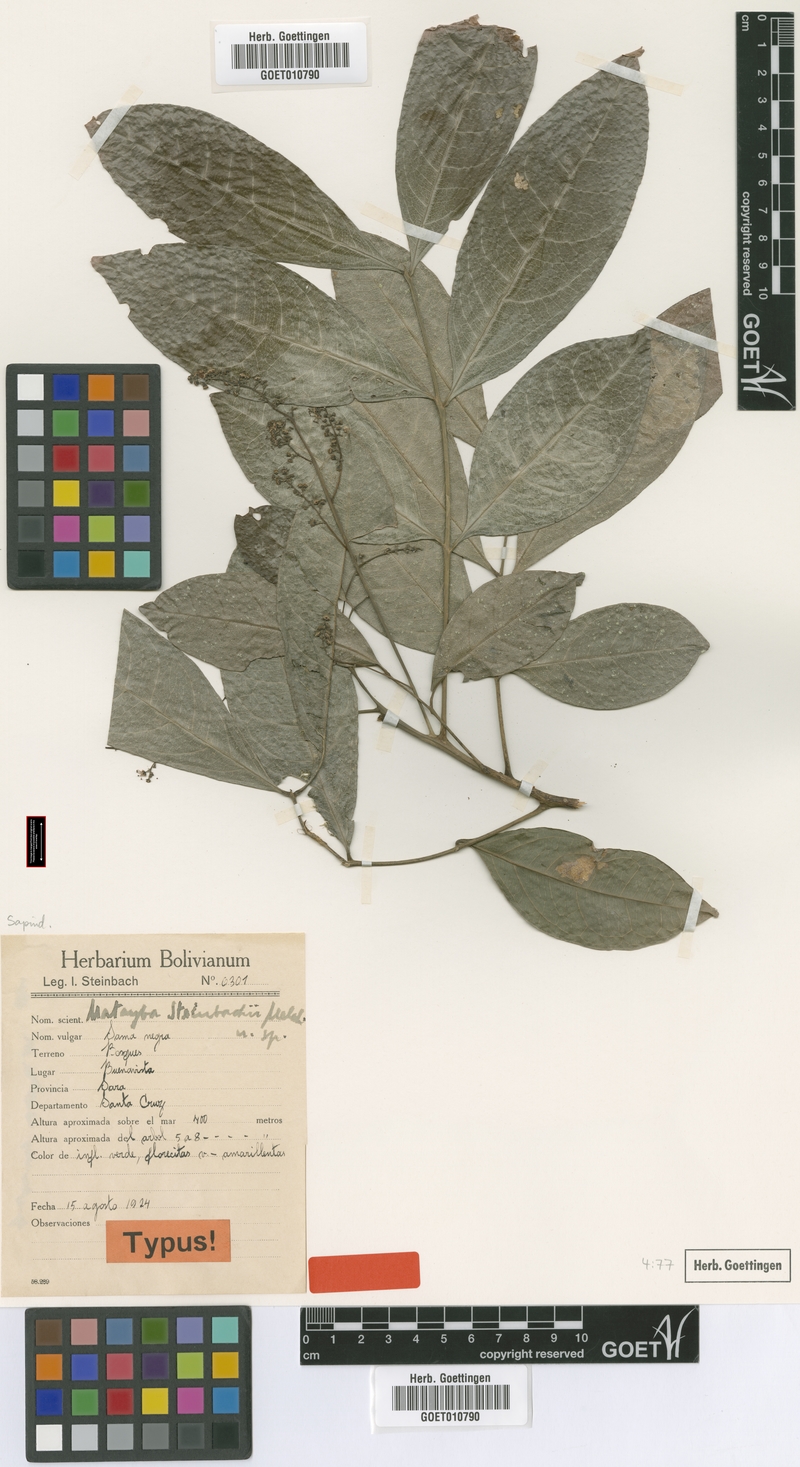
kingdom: Plantae
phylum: Tracheophyta
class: Magnoliopsida
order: Sapindales
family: Sapindaceae
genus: Matayba
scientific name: Matayba guianensis
